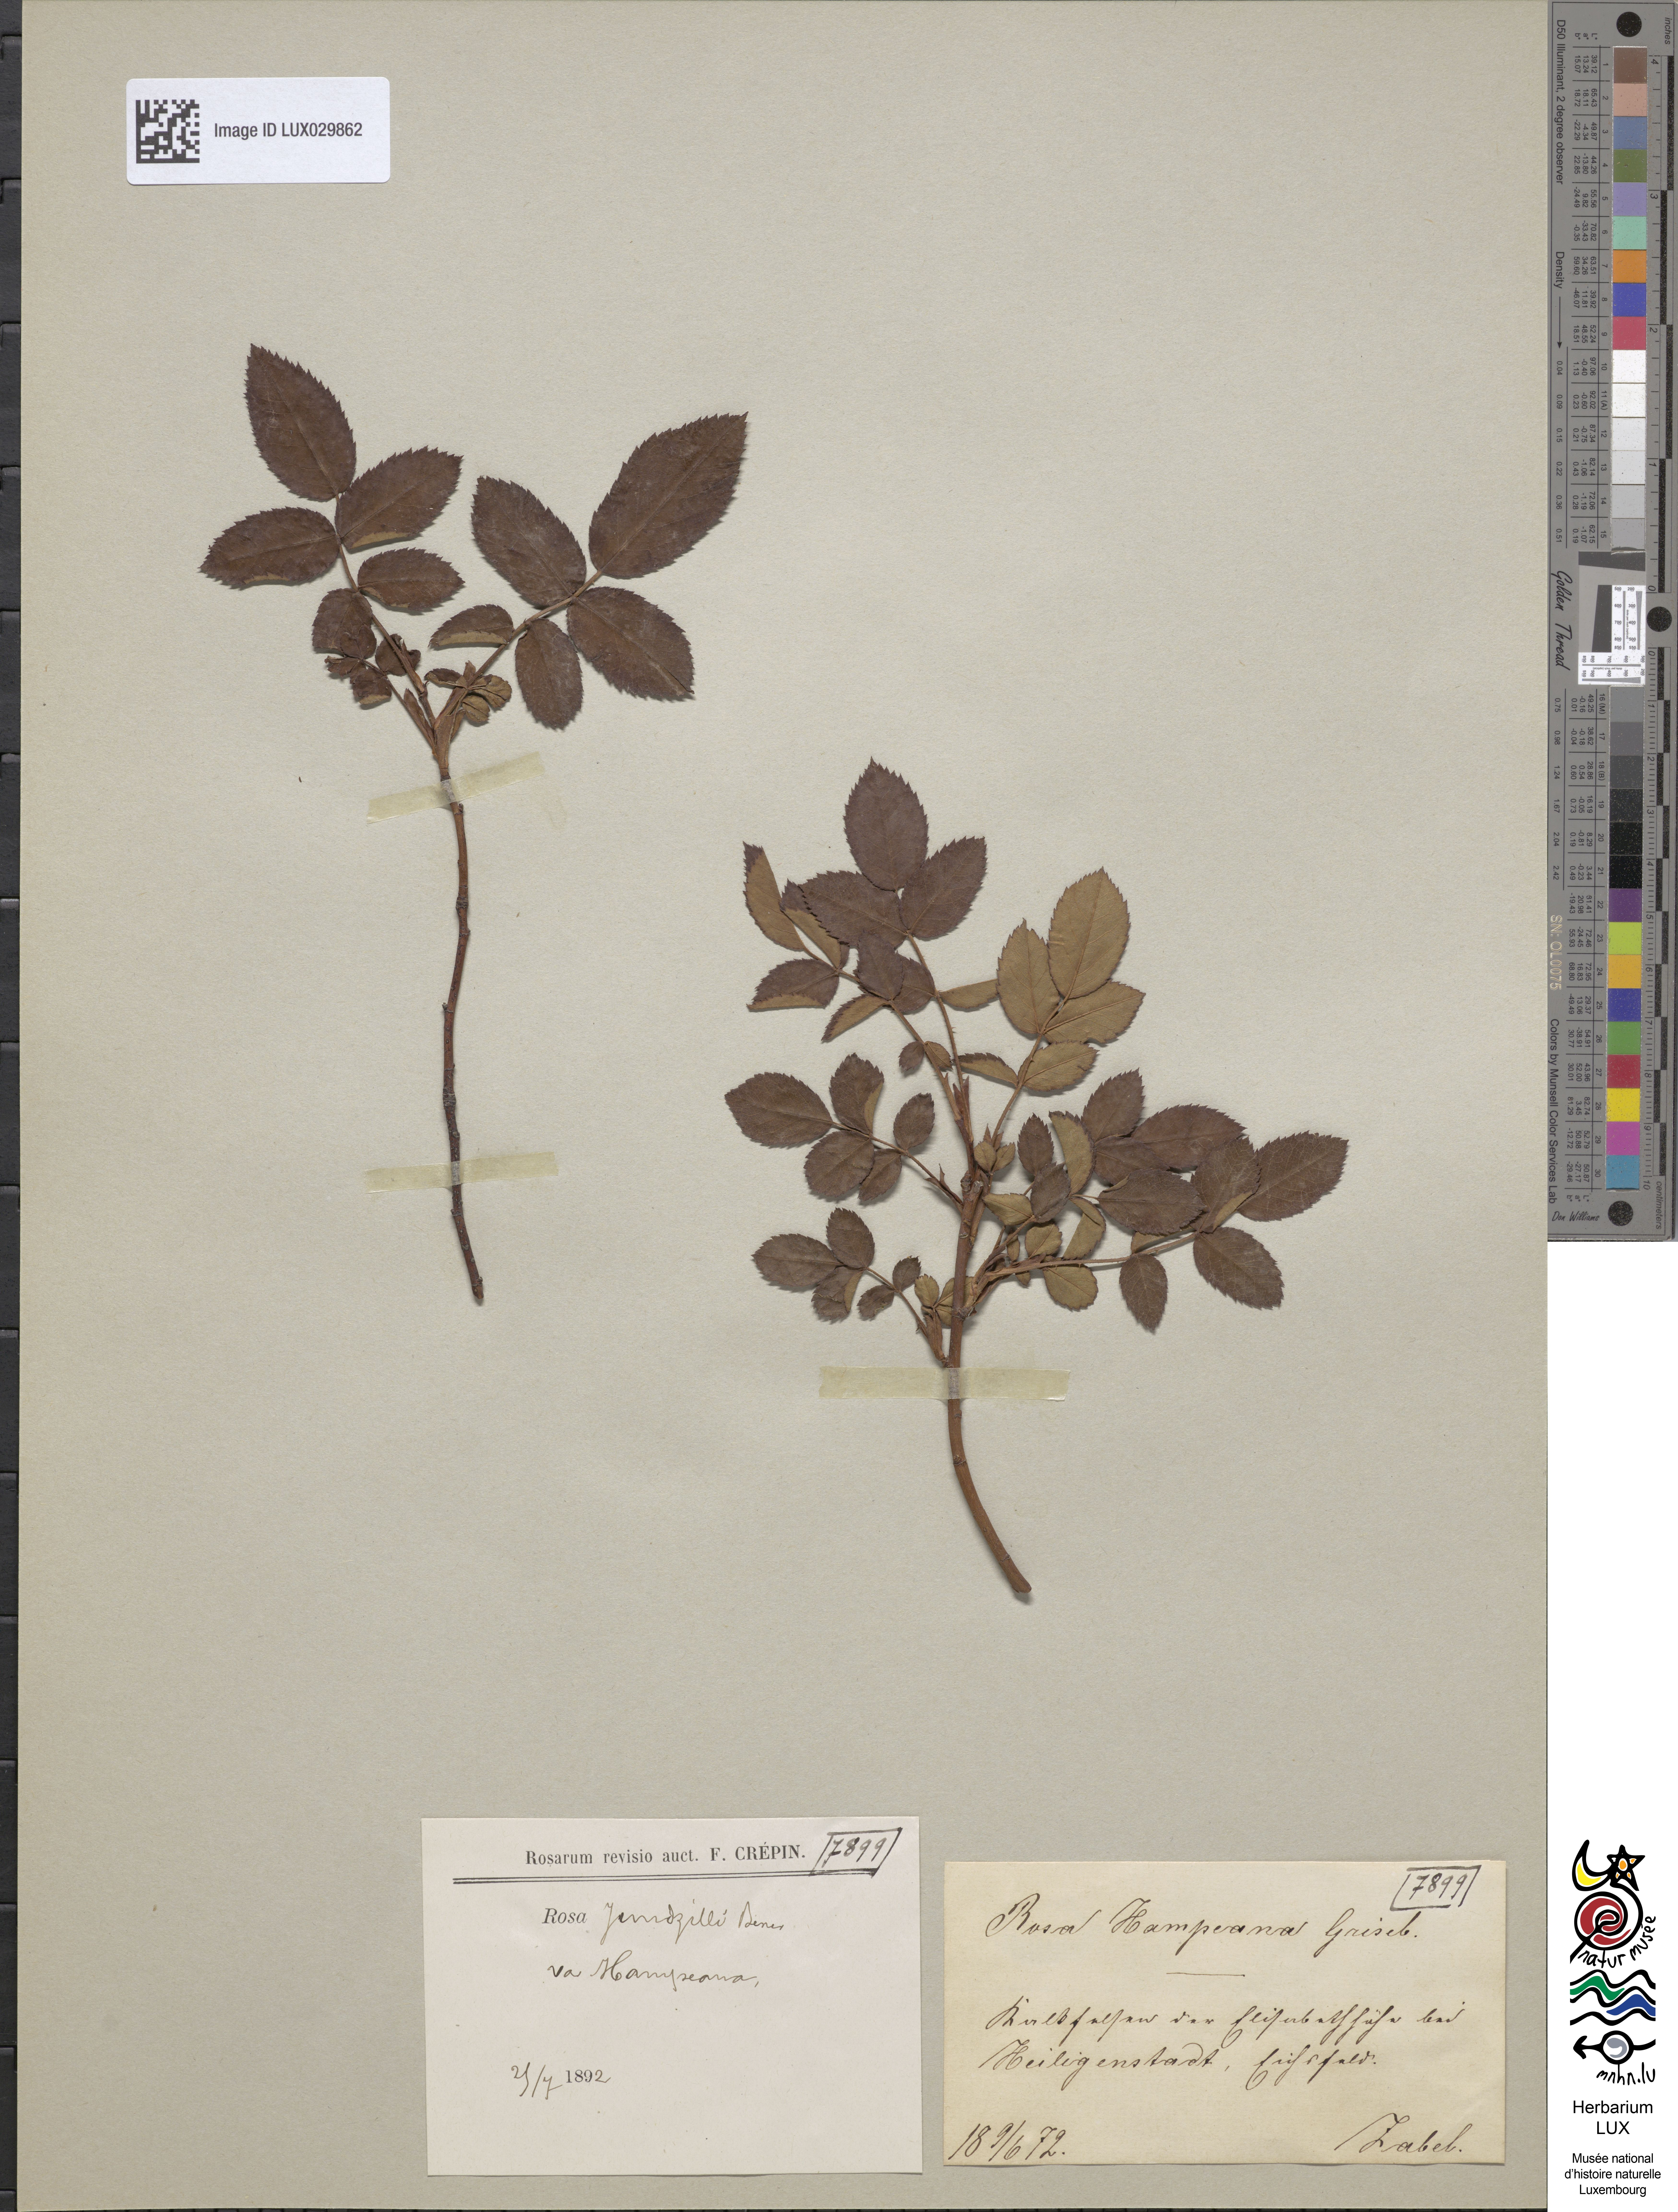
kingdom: Plantae
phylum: Tracheophyta
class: Magnoliopsida
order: Rosales
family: Rosaceae
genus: Rosa
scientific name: Rosa marginata
